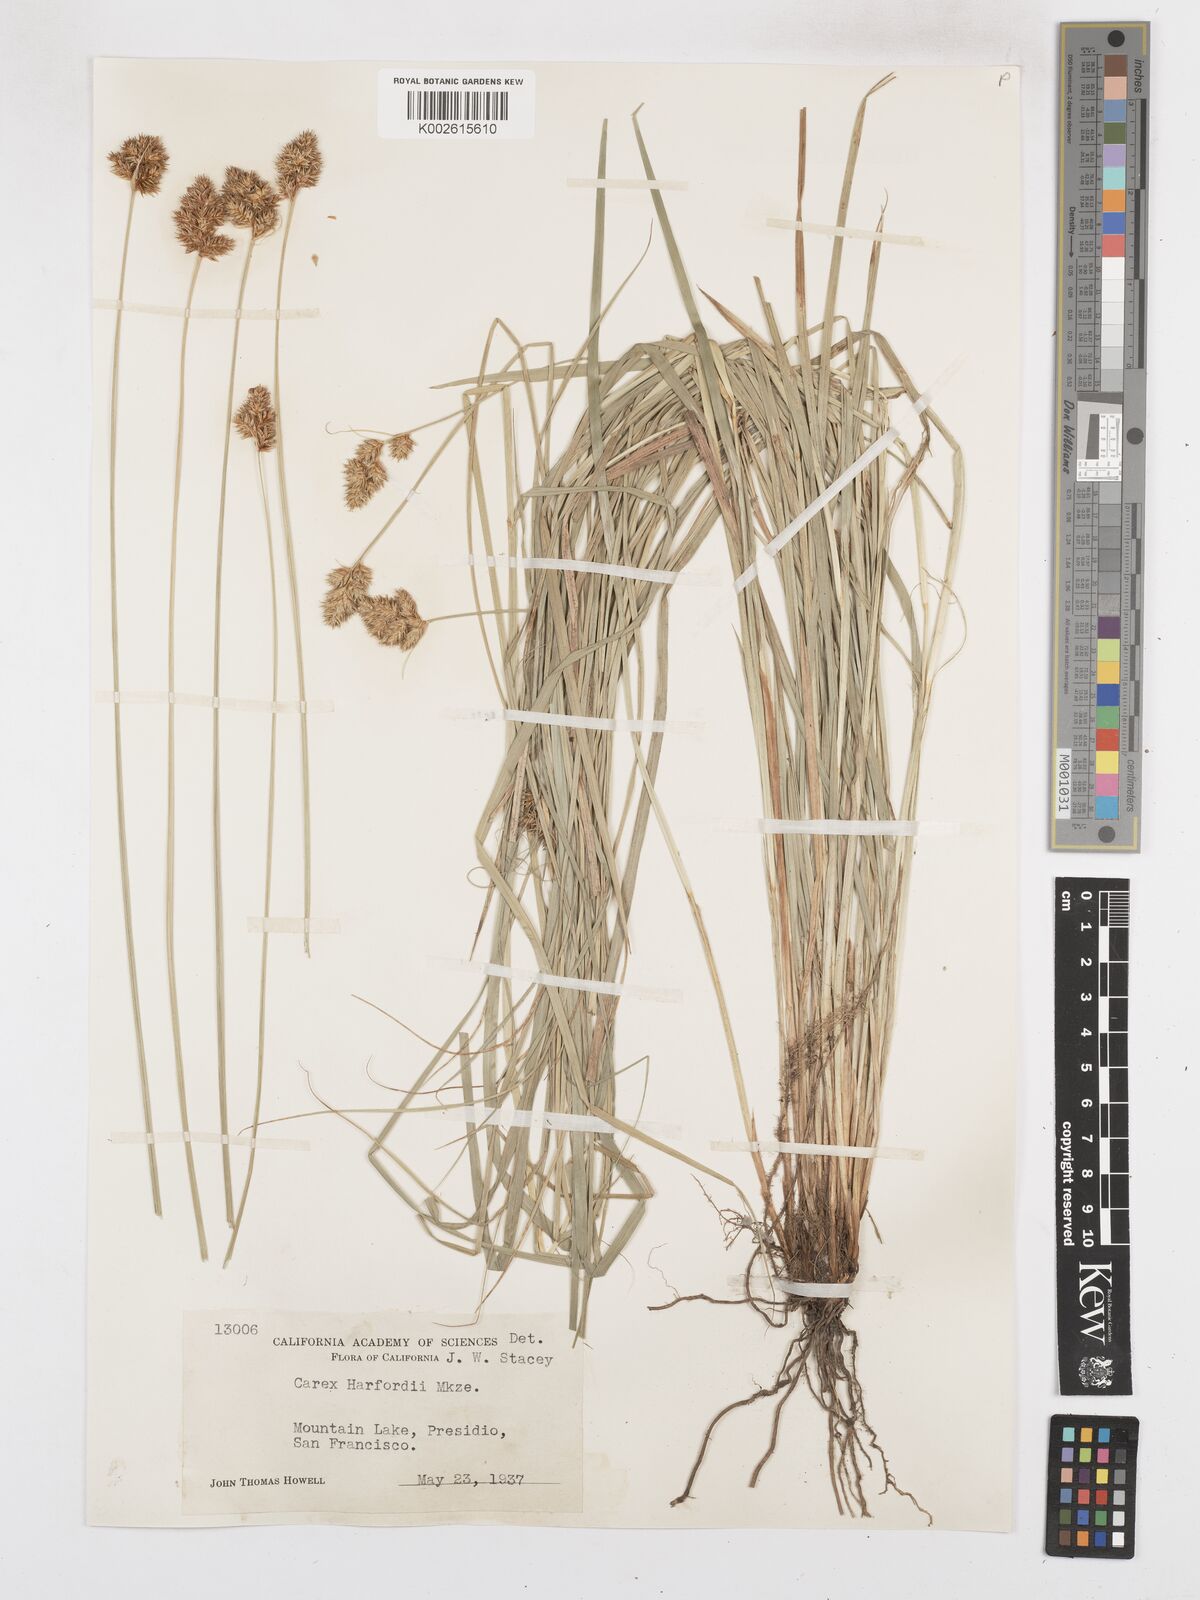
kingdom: Plantae
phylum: Tracheophyta
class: Liliopsida
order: Poales
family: Cyperaceae
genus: Carex
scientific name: Carex harfordii
